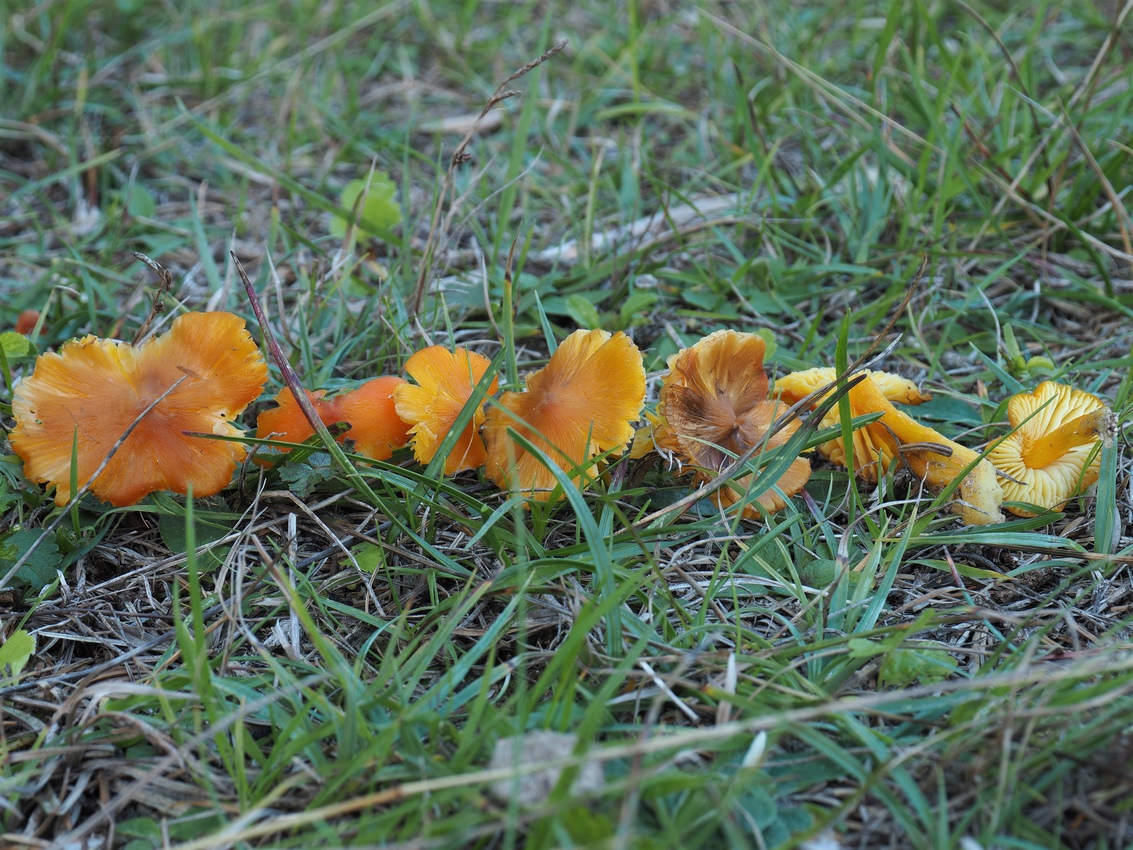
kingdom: Fungi
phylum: Basidiomycota
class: Agaricomycetes
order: Agaricales
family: Hygrophoraceae
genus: Hygrocybe
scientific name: Hygrocybe acutoconica
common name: Konrads vokshat
